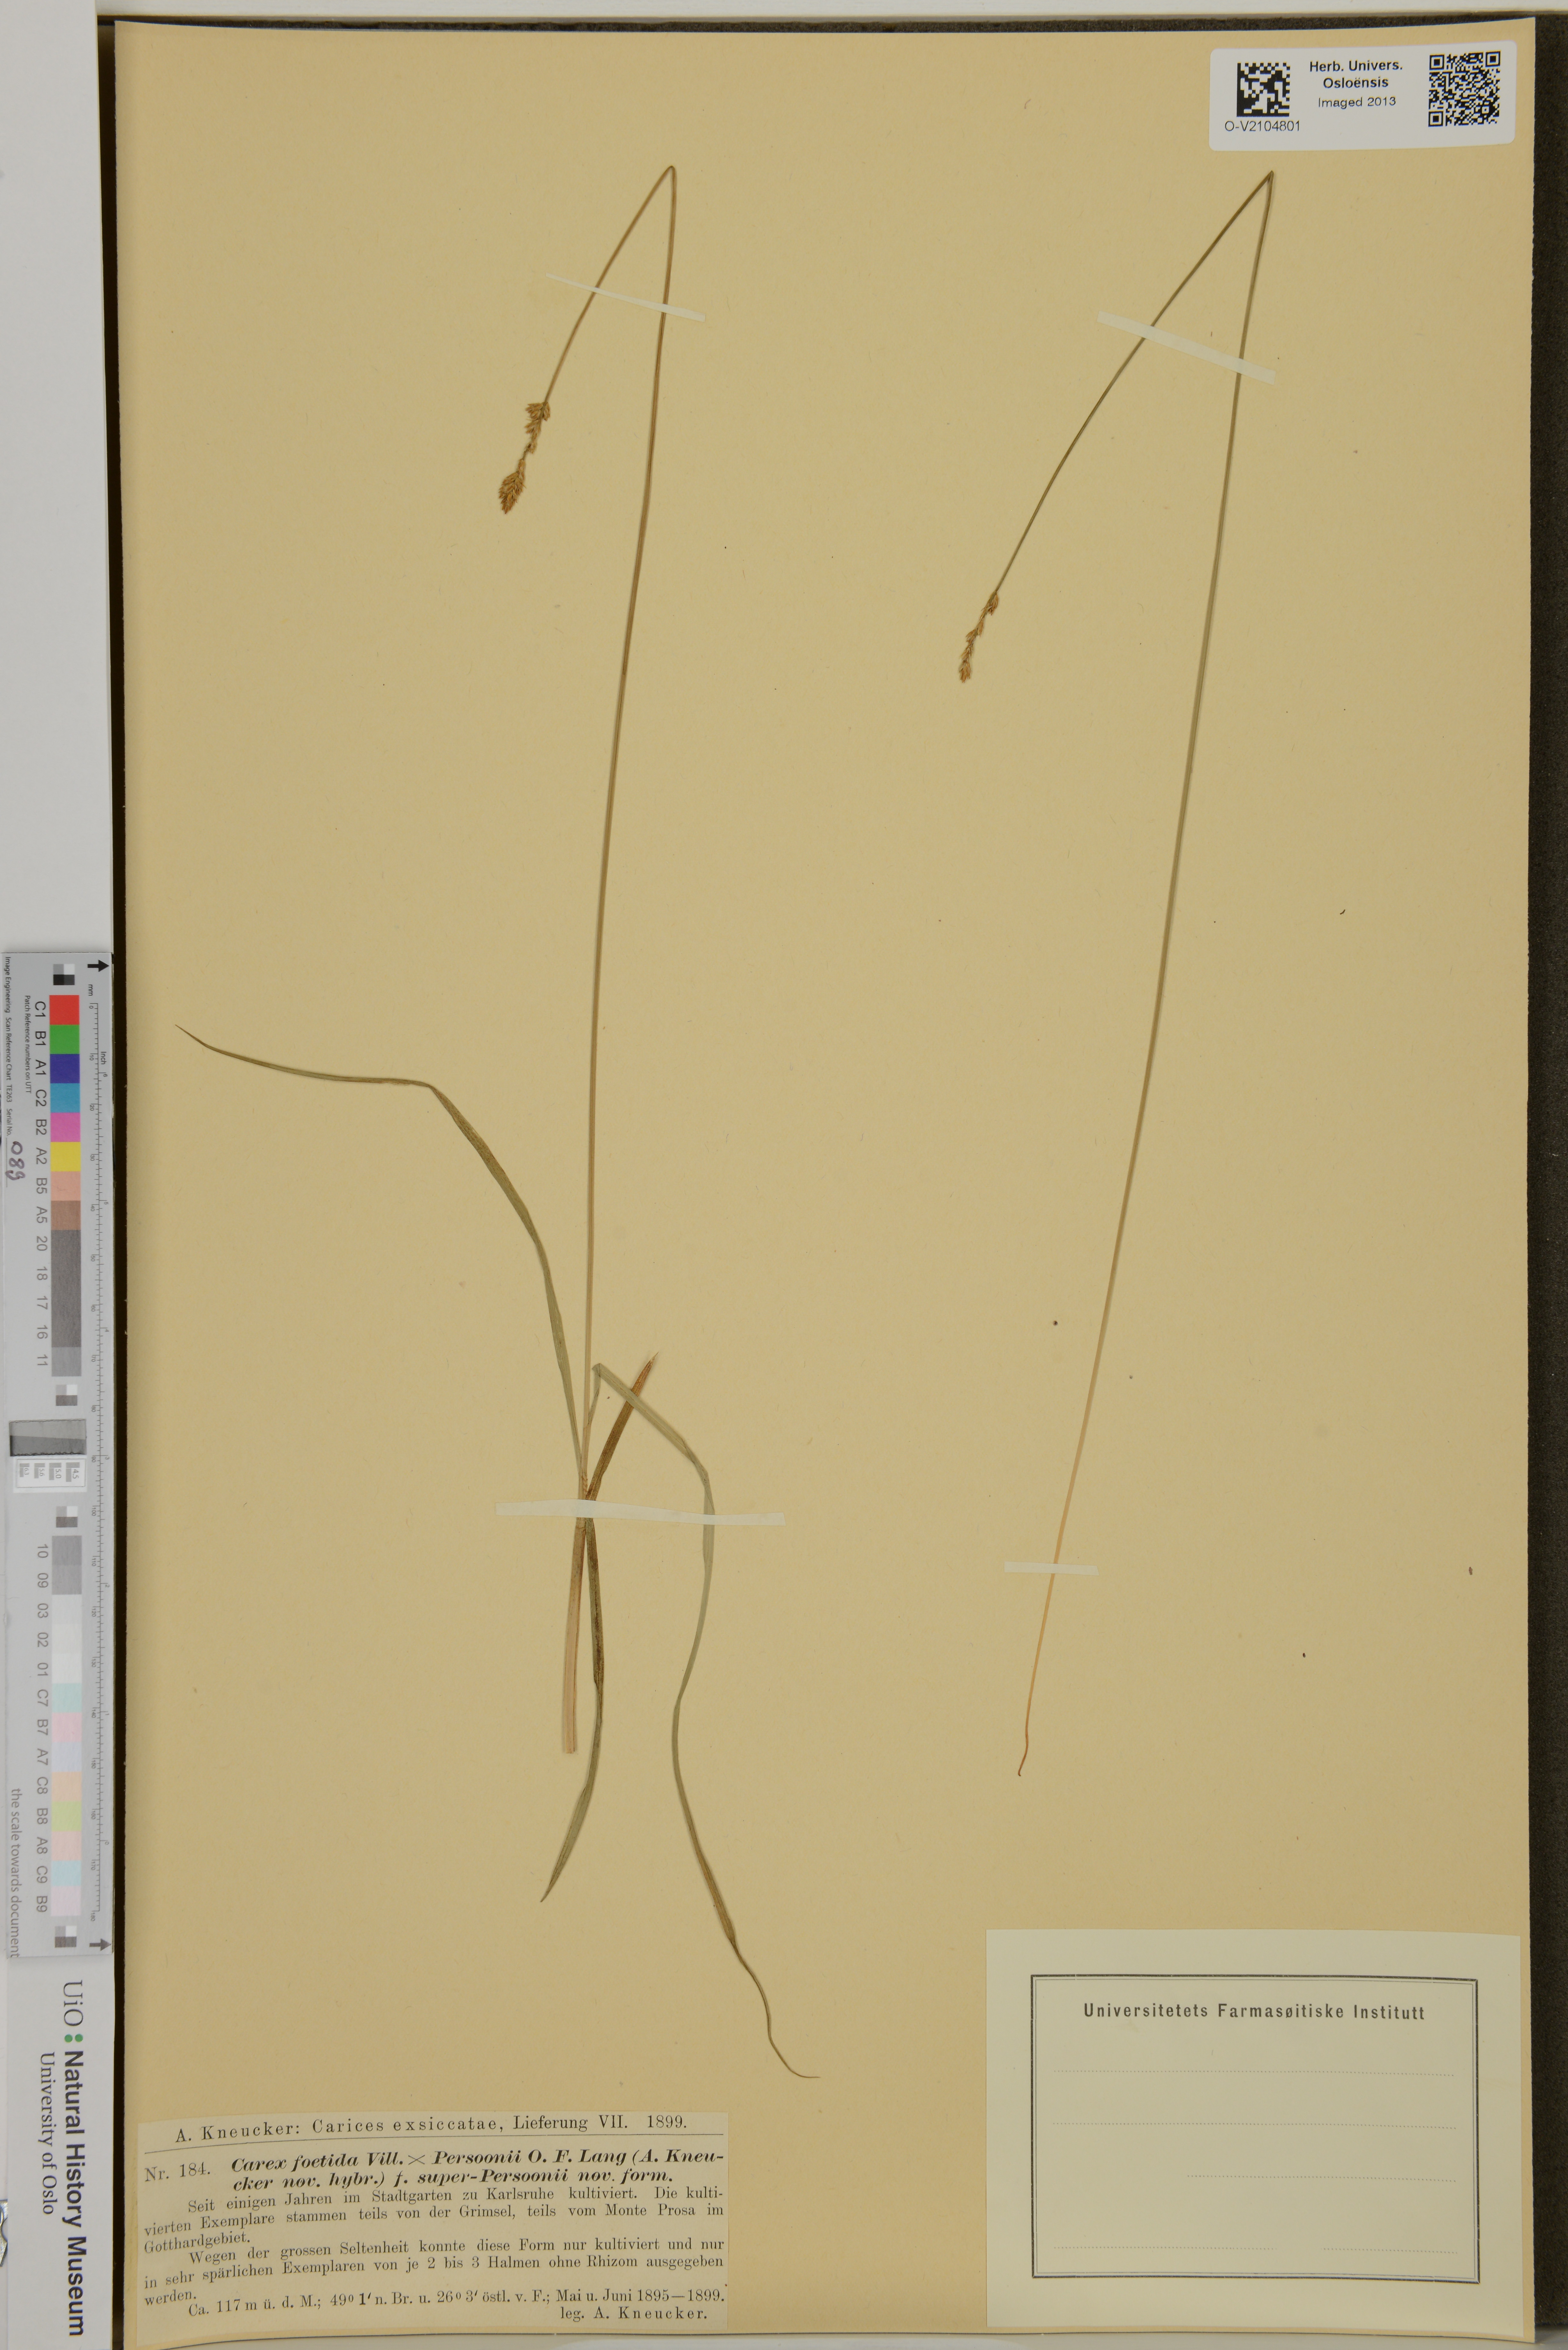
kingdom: Plantae
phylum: Tracheophyta
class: Liliopsida
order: Poales
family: Cyperaceae
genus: Carex
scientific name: Carex
